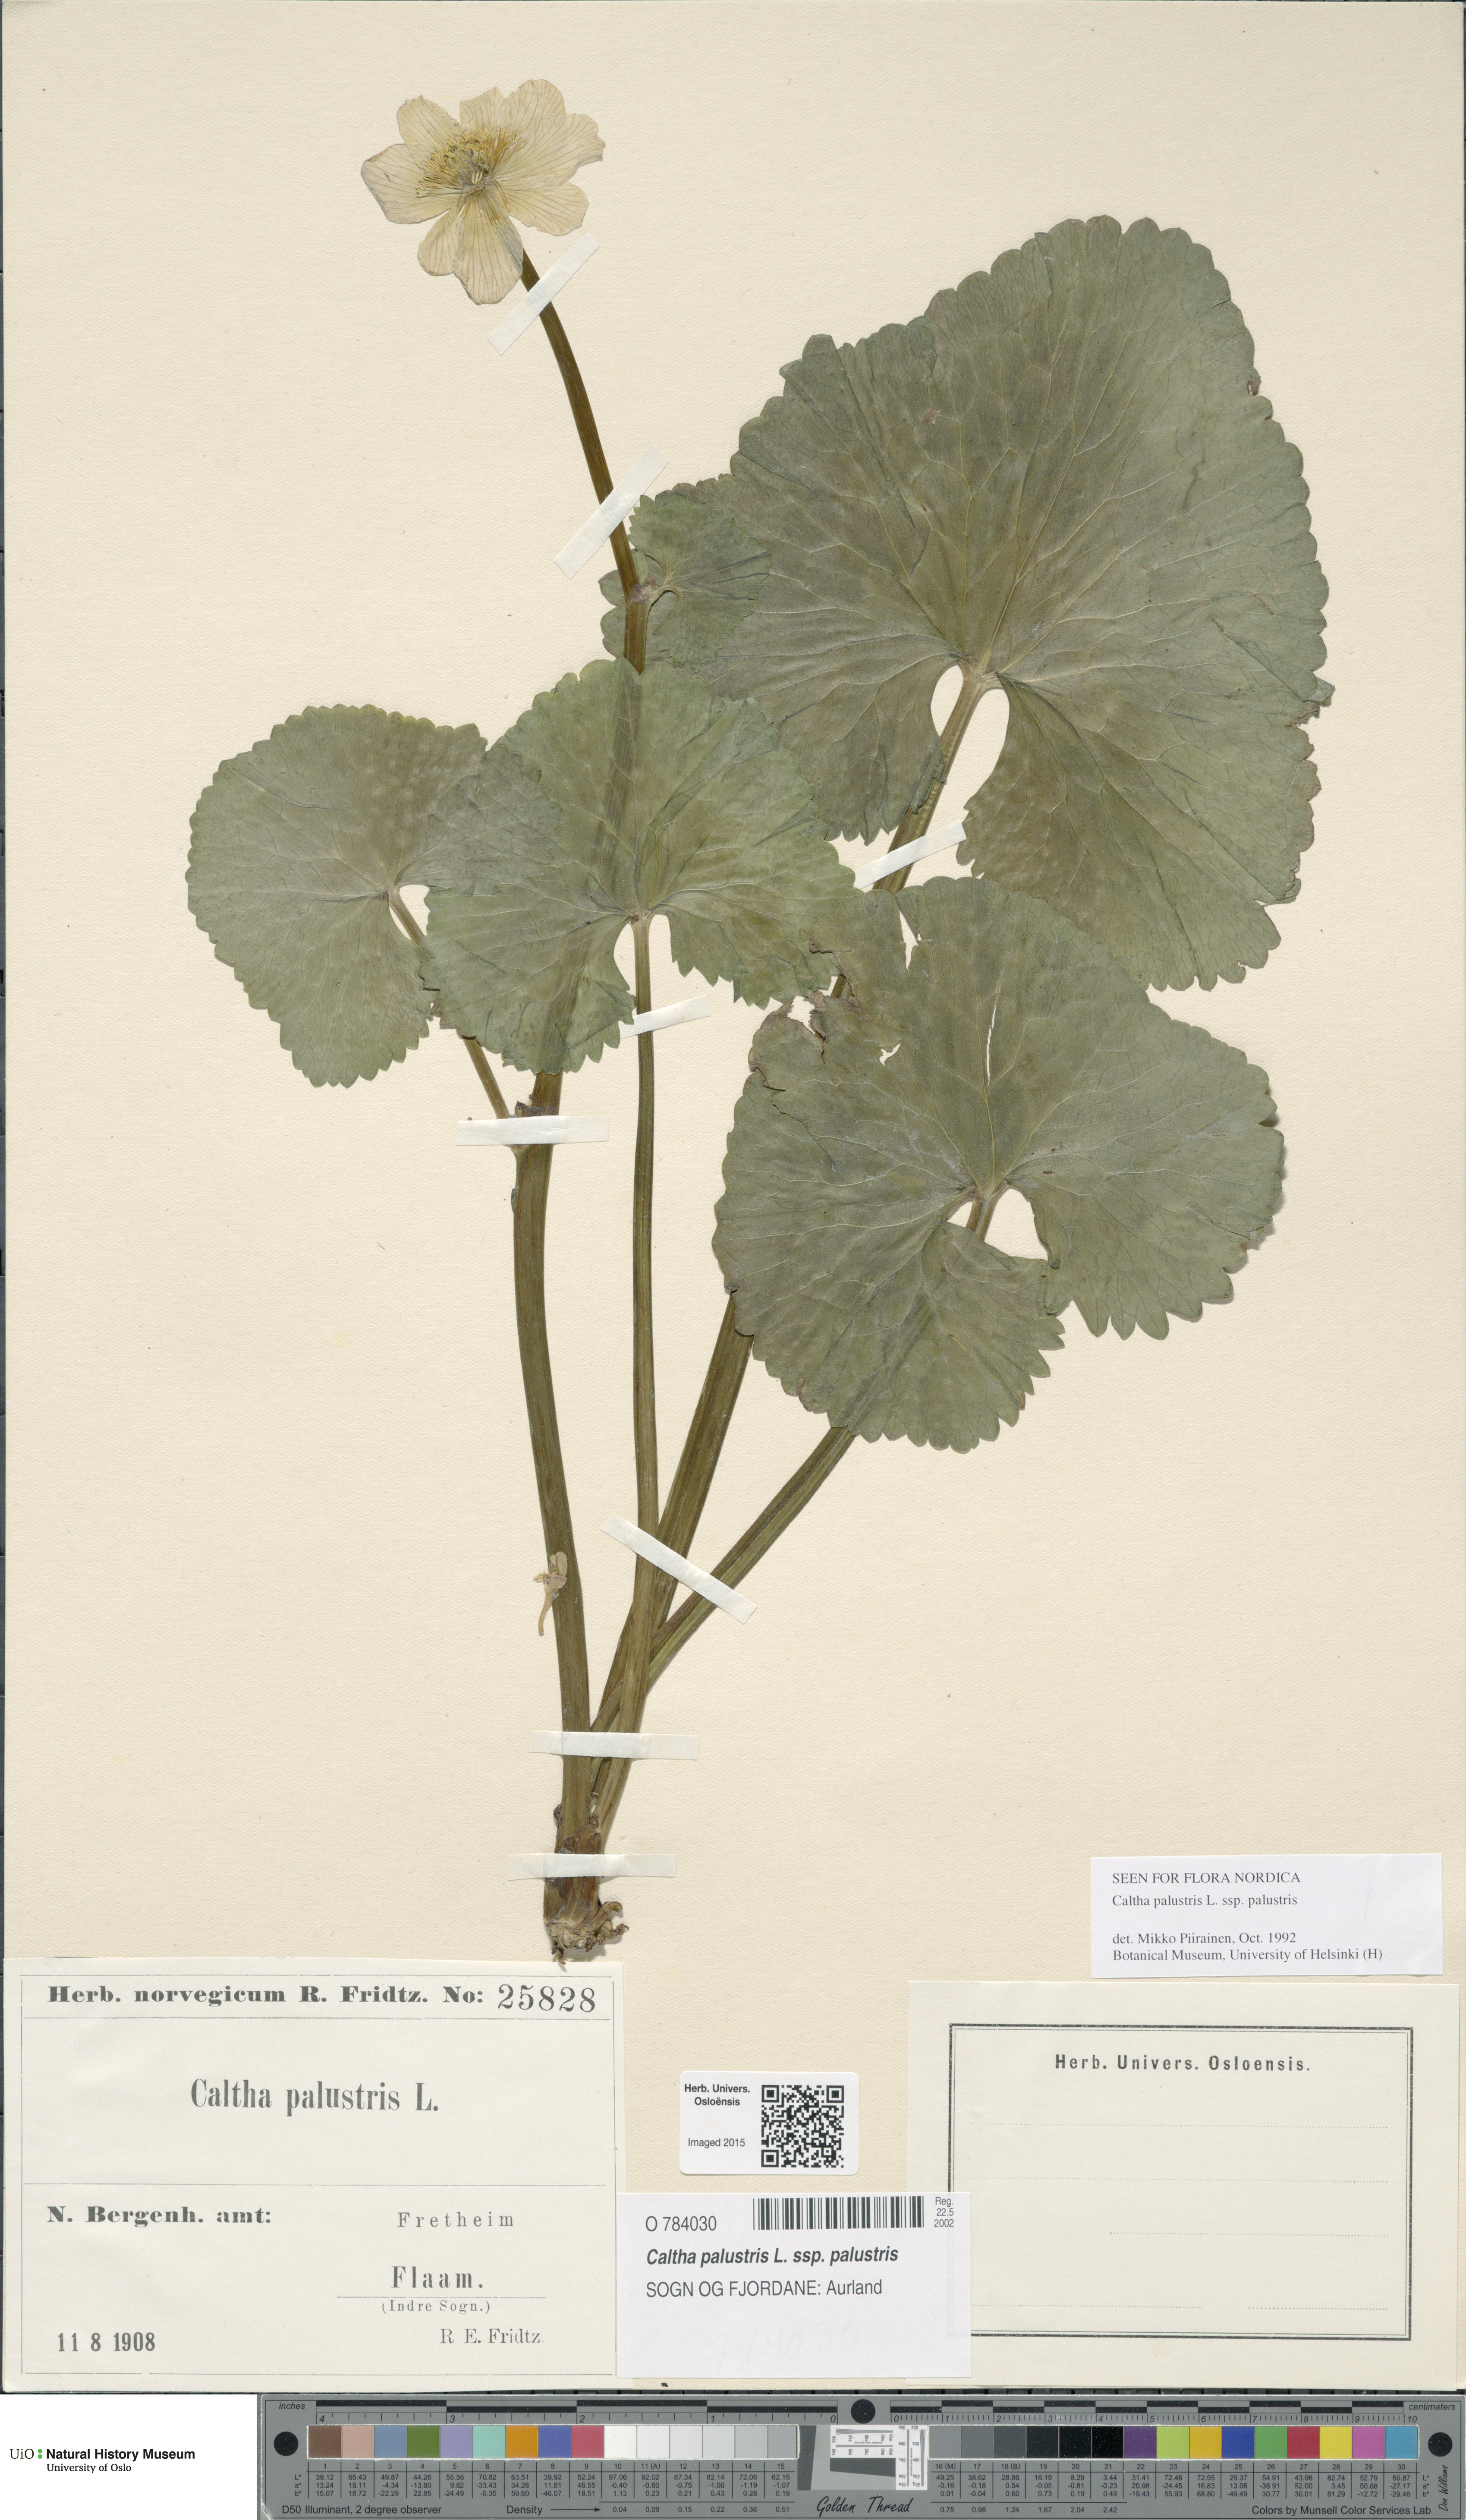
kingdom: Plantae
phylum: Tracheophyta
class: Magnoliopsida
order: Ranunculales
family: Ranunculaceae
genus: Caltha
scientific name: Caltha palustris
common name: Marsh marigold
